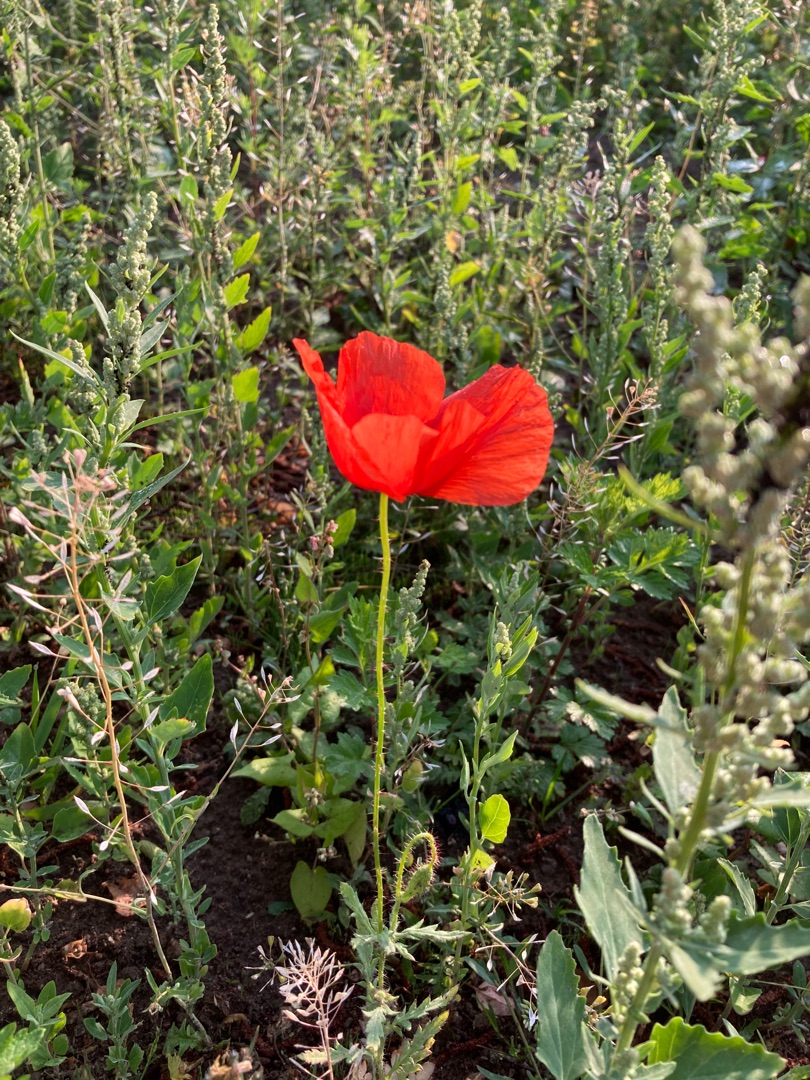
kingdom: Plantae
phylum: Tracheophyta
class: Magnoliopsida
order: Ranunculales
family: Papaveraceae
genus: Papaver
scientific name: Papaver rhoeas
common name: Korn-valmue
